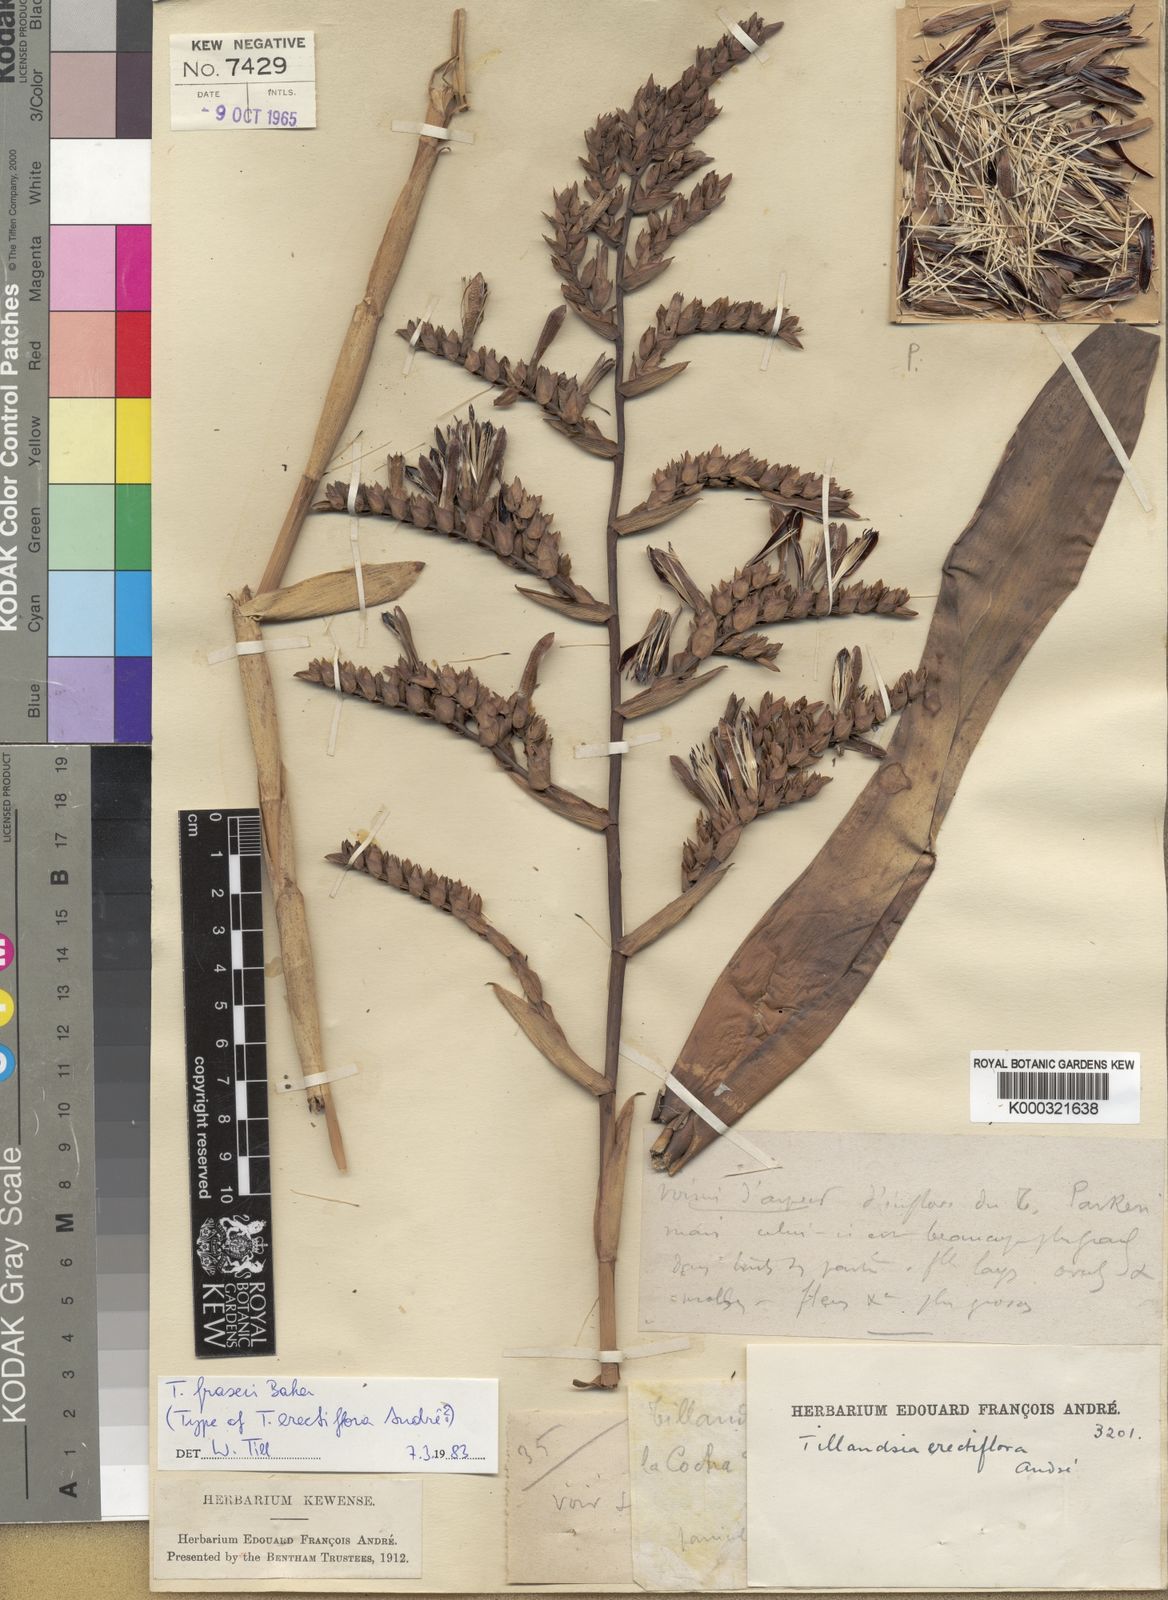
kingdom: Plantae
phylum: Tracheophyta
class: Liliopsida
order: Poales
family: Bromeliaceae
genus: Racinaea
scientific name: Racinaea fraseri
